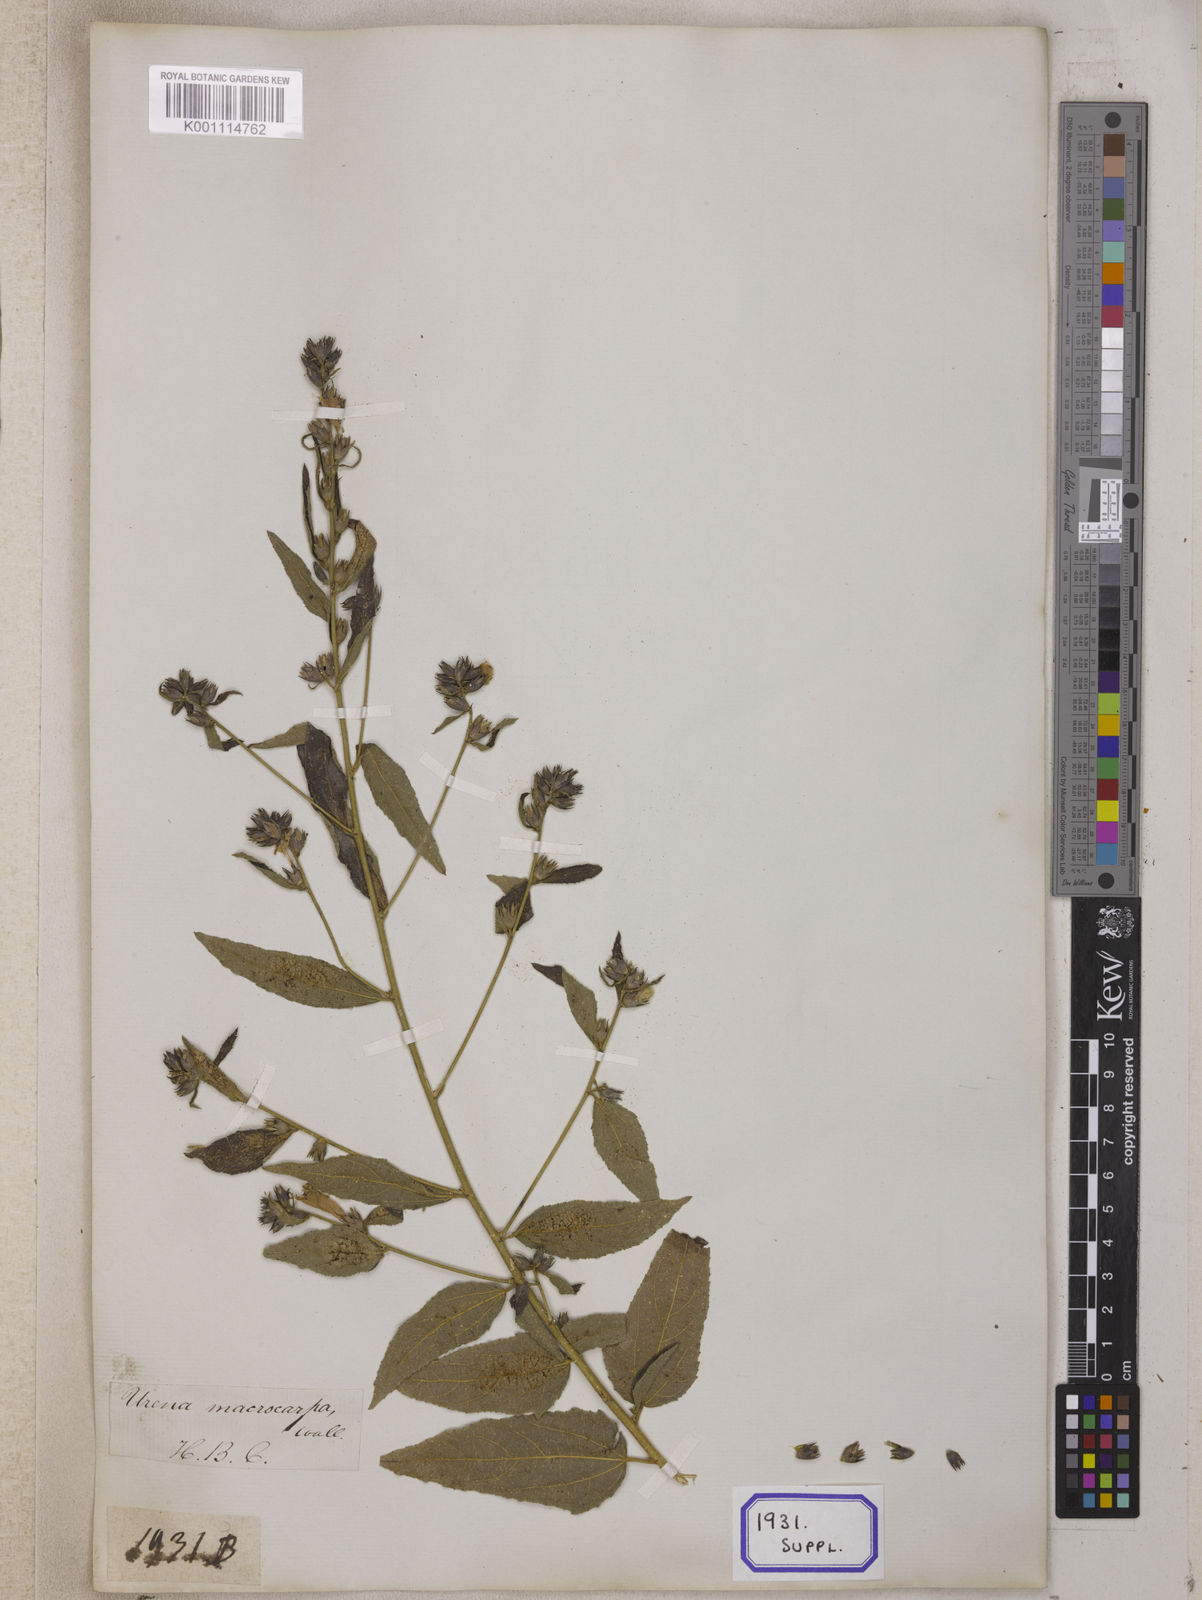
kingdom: Plantae
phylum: Tracheophyta
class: Magnoliopsida
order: Malvales
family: Malvaceae
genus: Urena
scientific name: Urena repanda
